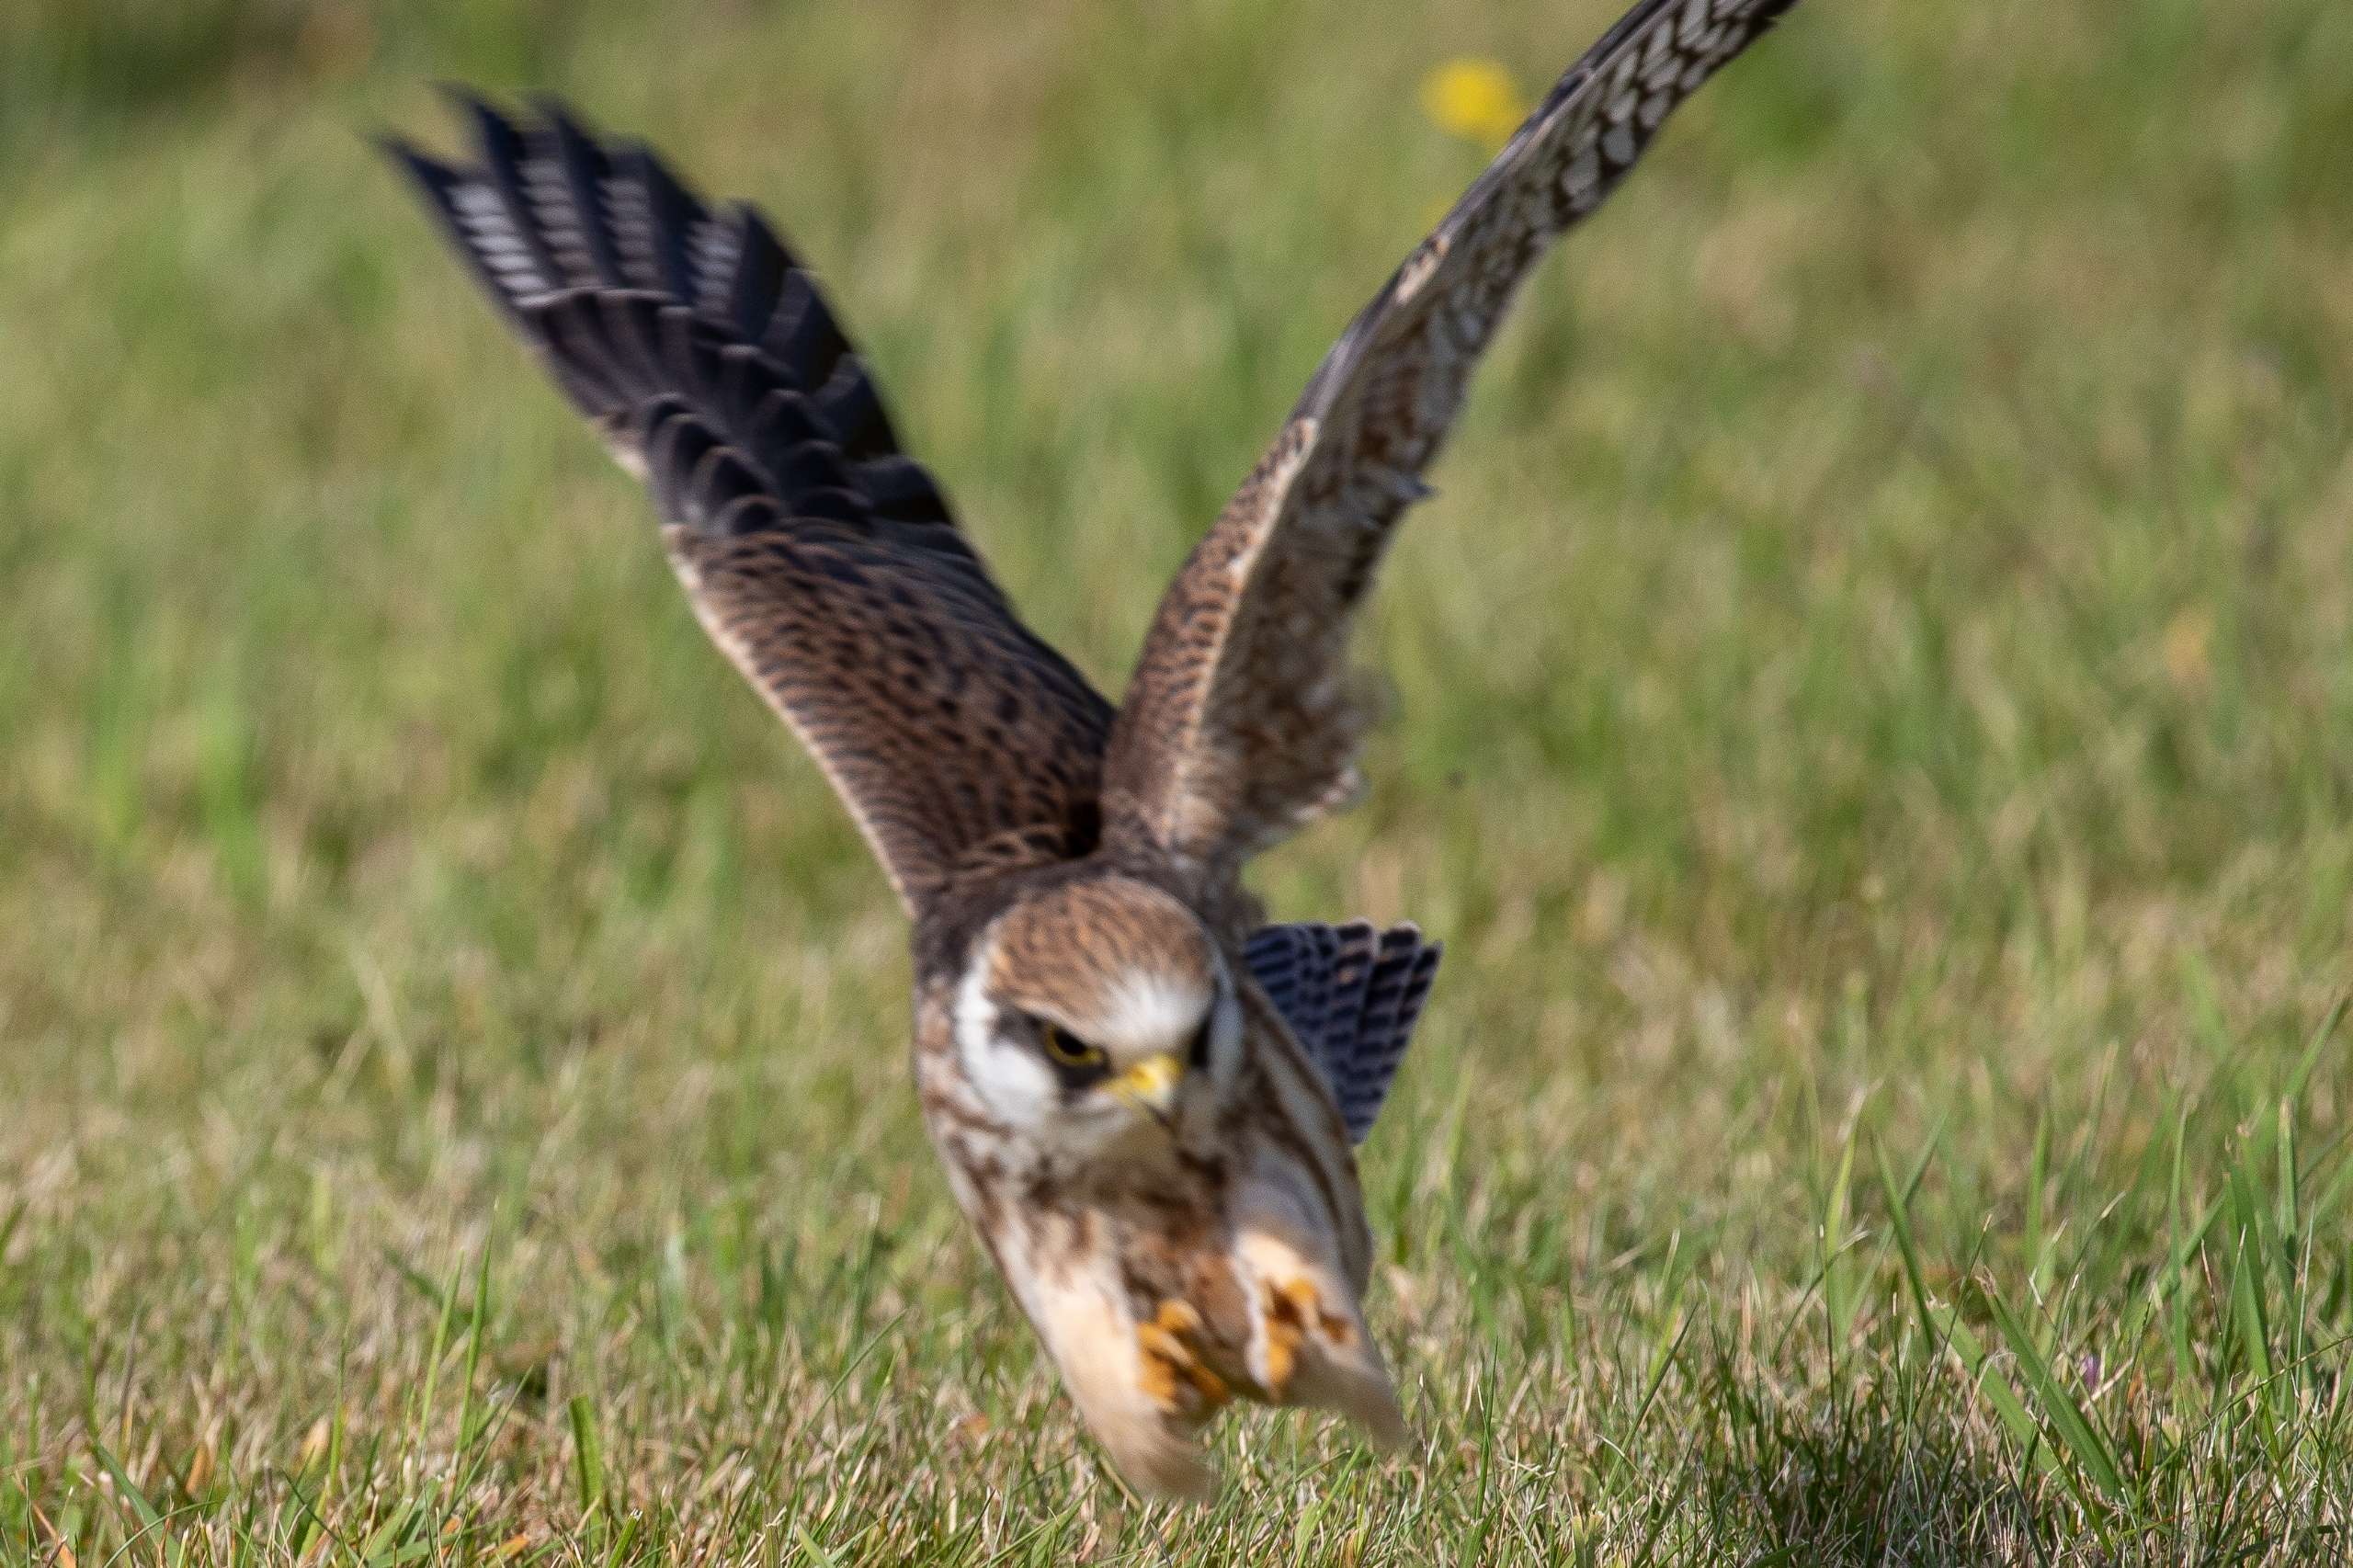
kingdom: Animalia
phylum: Chordata
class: Aves
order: Falconiformes
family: Falconidae
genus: Falco
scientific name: Falco vespertinus
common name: Aftenfalk
